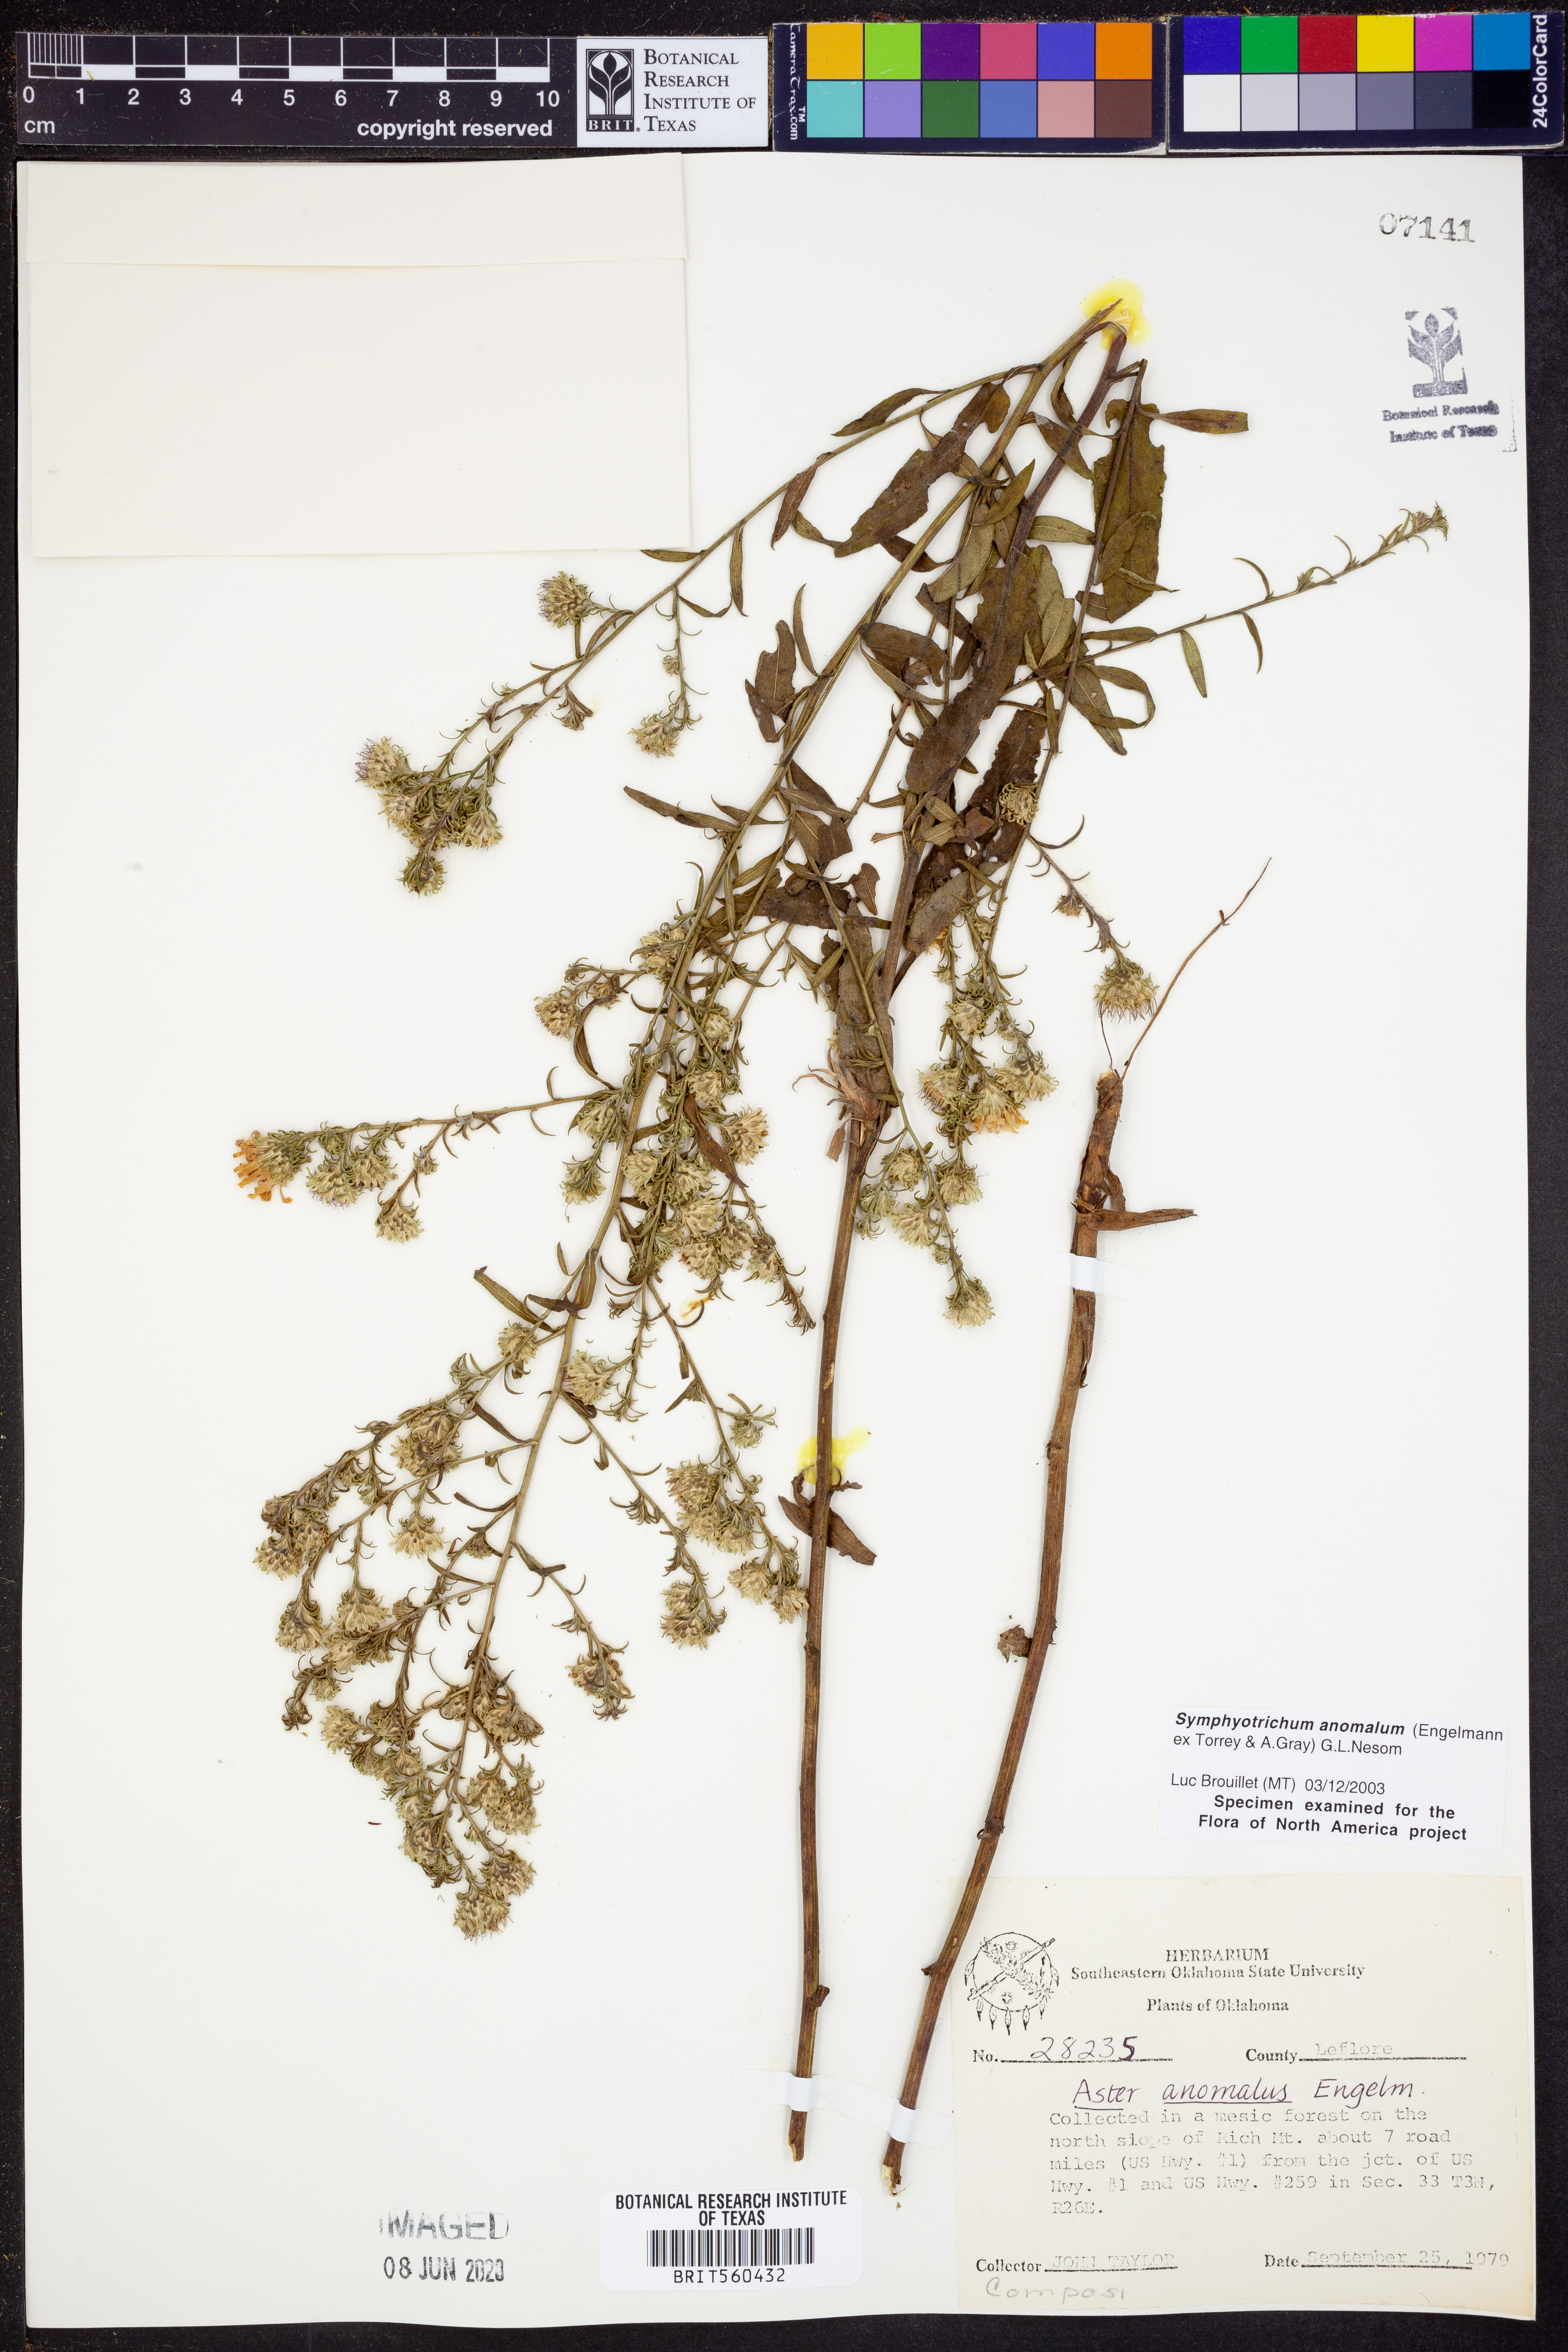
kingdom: Plantae
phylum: Tracheophyta
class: Magnoliopsida
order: Asterales
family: Asteraceae
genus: Symphyotrichum
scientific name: Symphyotrichum anomalum
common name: Many-ray aster
